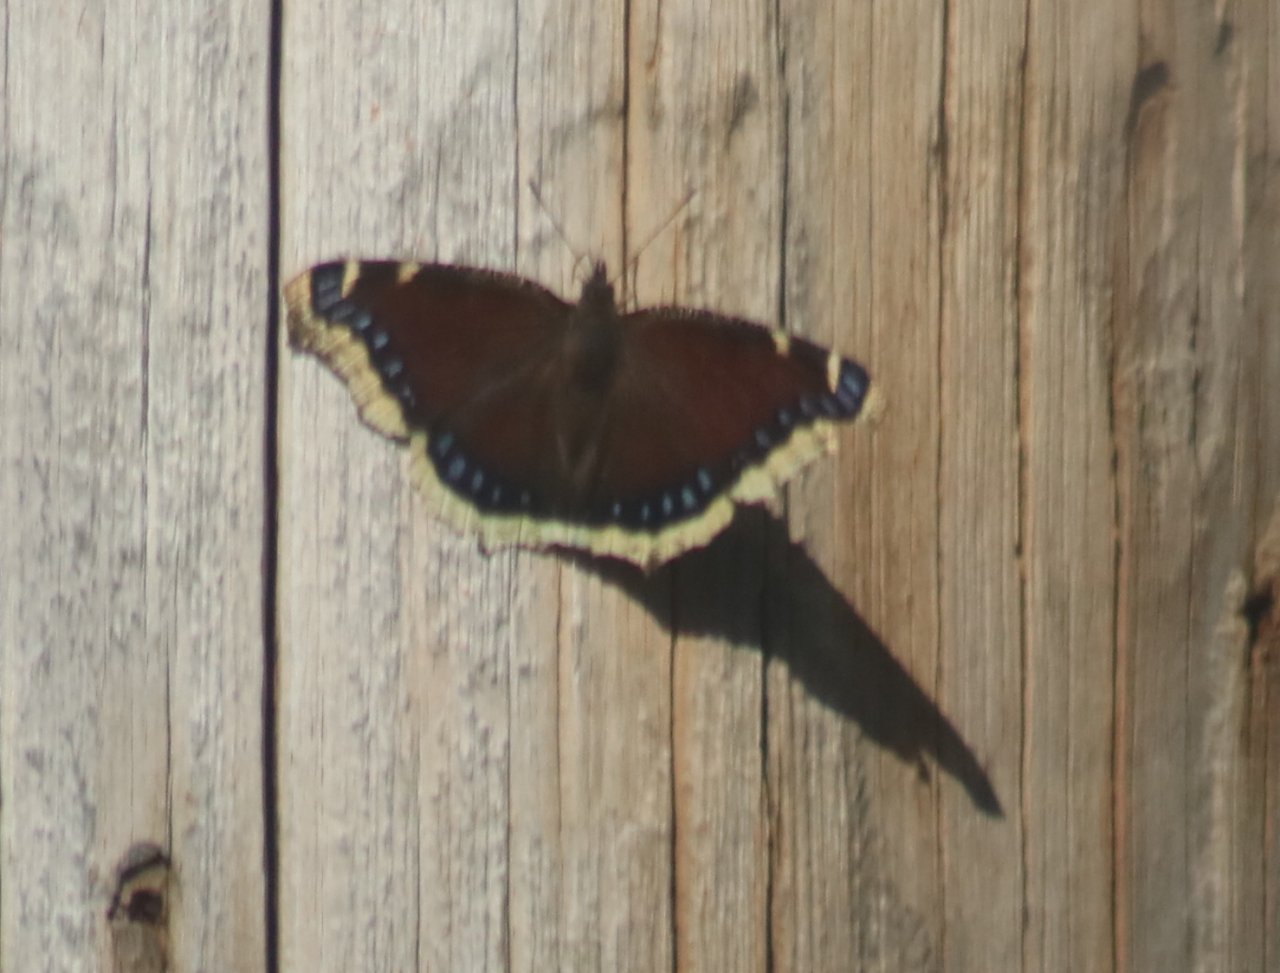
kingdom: Animalia
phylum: Arthropoda
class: Insecta
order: Lepidoptera
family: Nymphalidae
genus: Nymphalis
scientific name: Nymphalis antiopa
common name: Mourning Cloak
